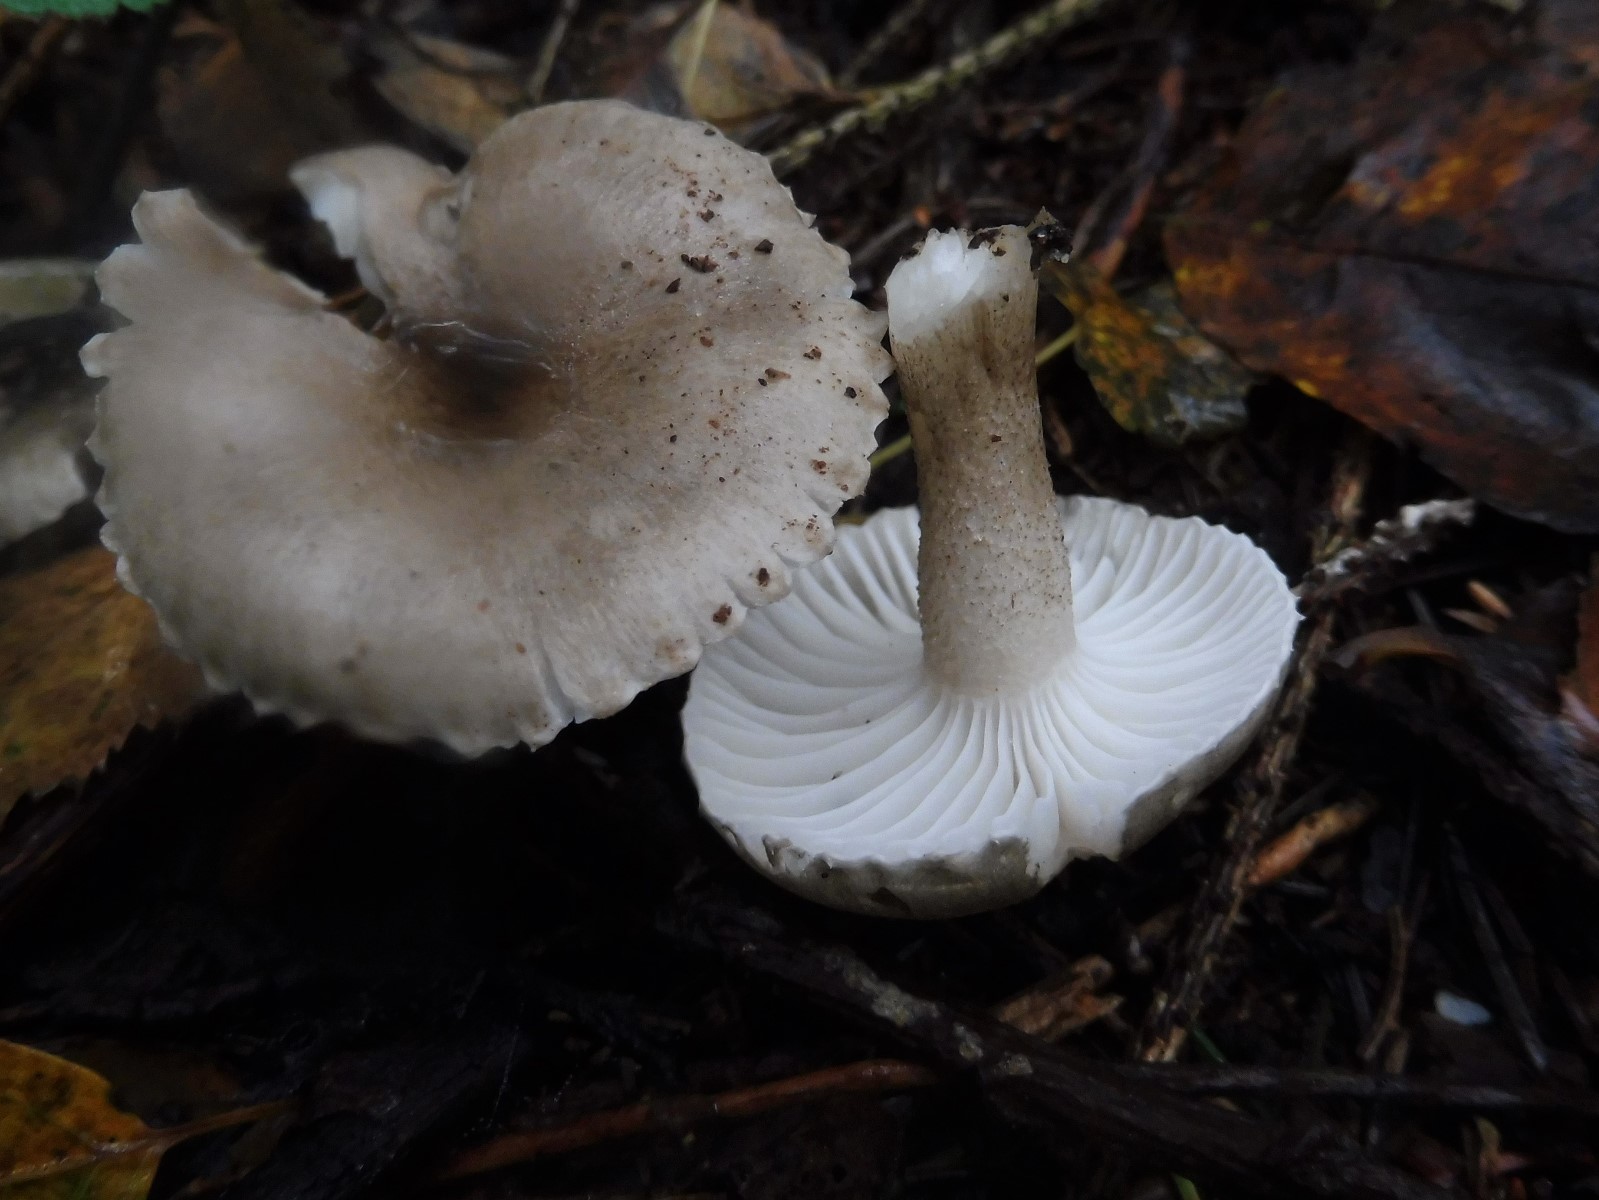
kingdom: Fungi
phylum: Basidiomycota
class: Agaricomycetes
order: Agaricales
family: Hygrophoraceae
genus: Hygrophorus
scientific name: Hygrophorus pustulatus
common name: mørkprikket sneglehat
